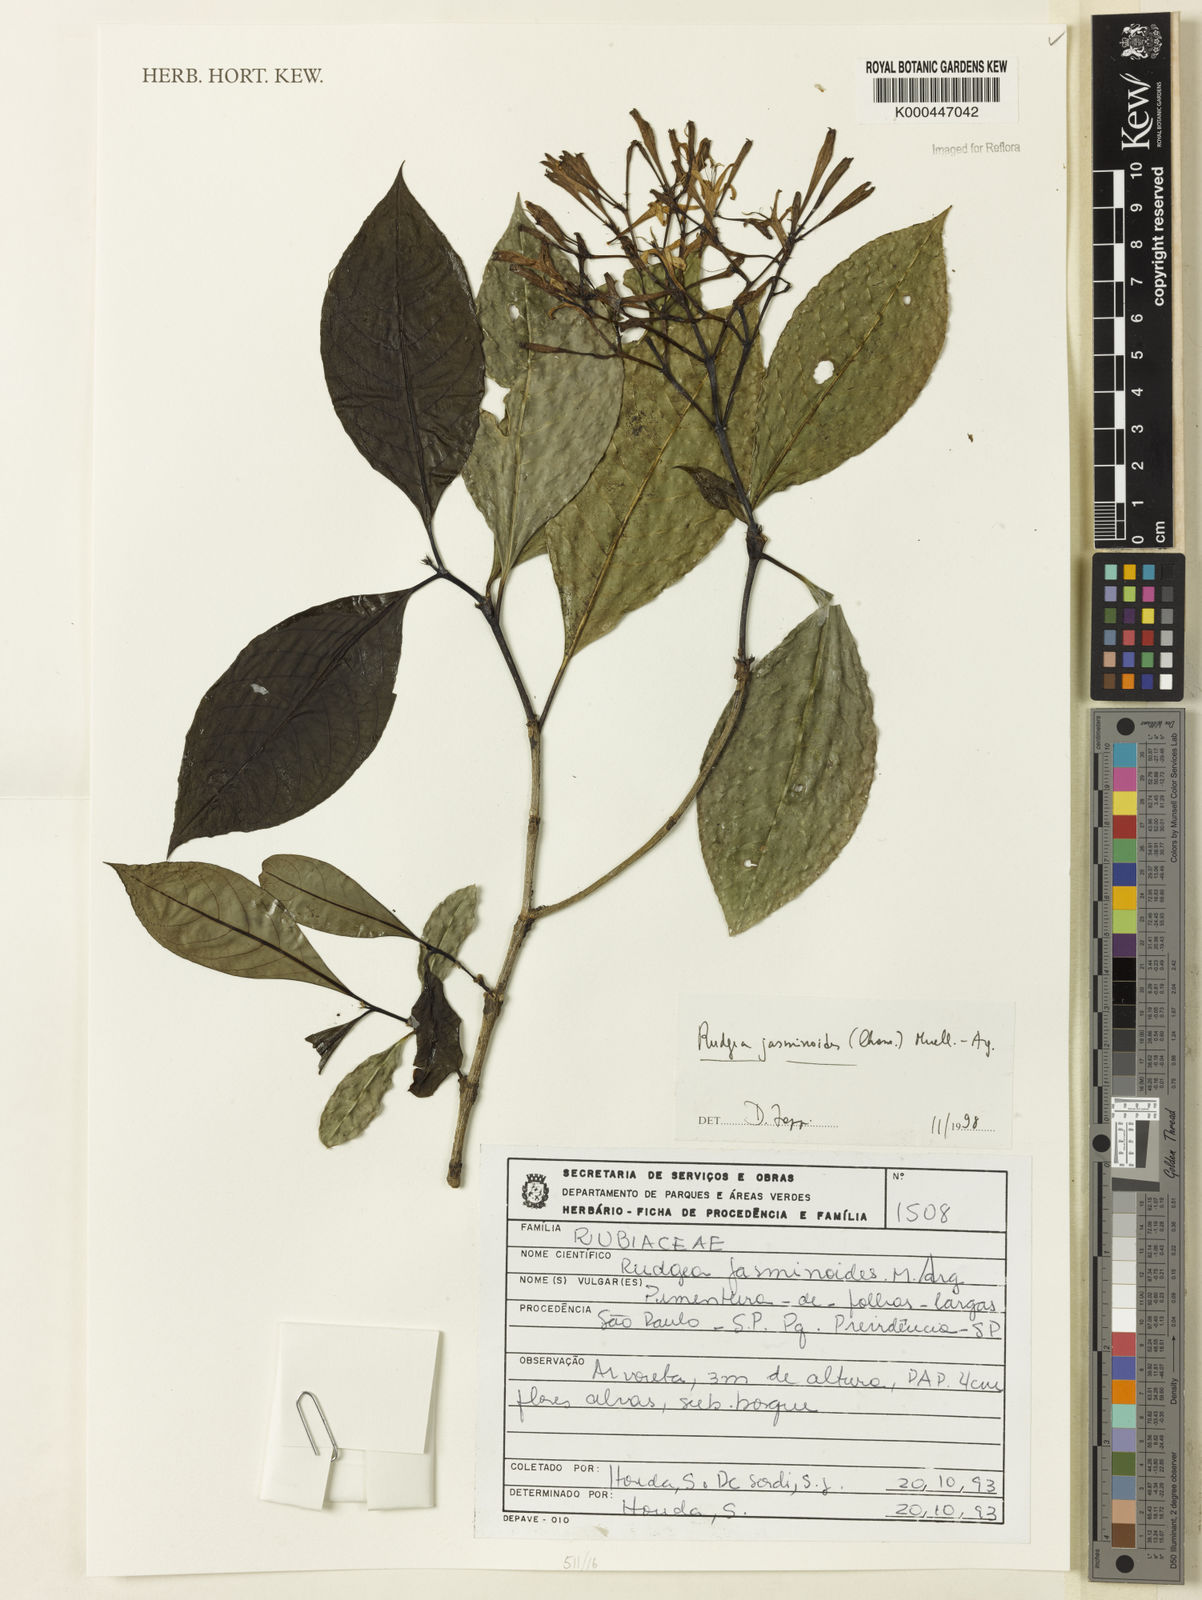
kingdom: Plantae
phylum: Tracheophyta
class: Magnoliopsida
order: Gentianales
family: Rubiaceae
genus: Rudgea
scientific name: Rudgea jasminoides
